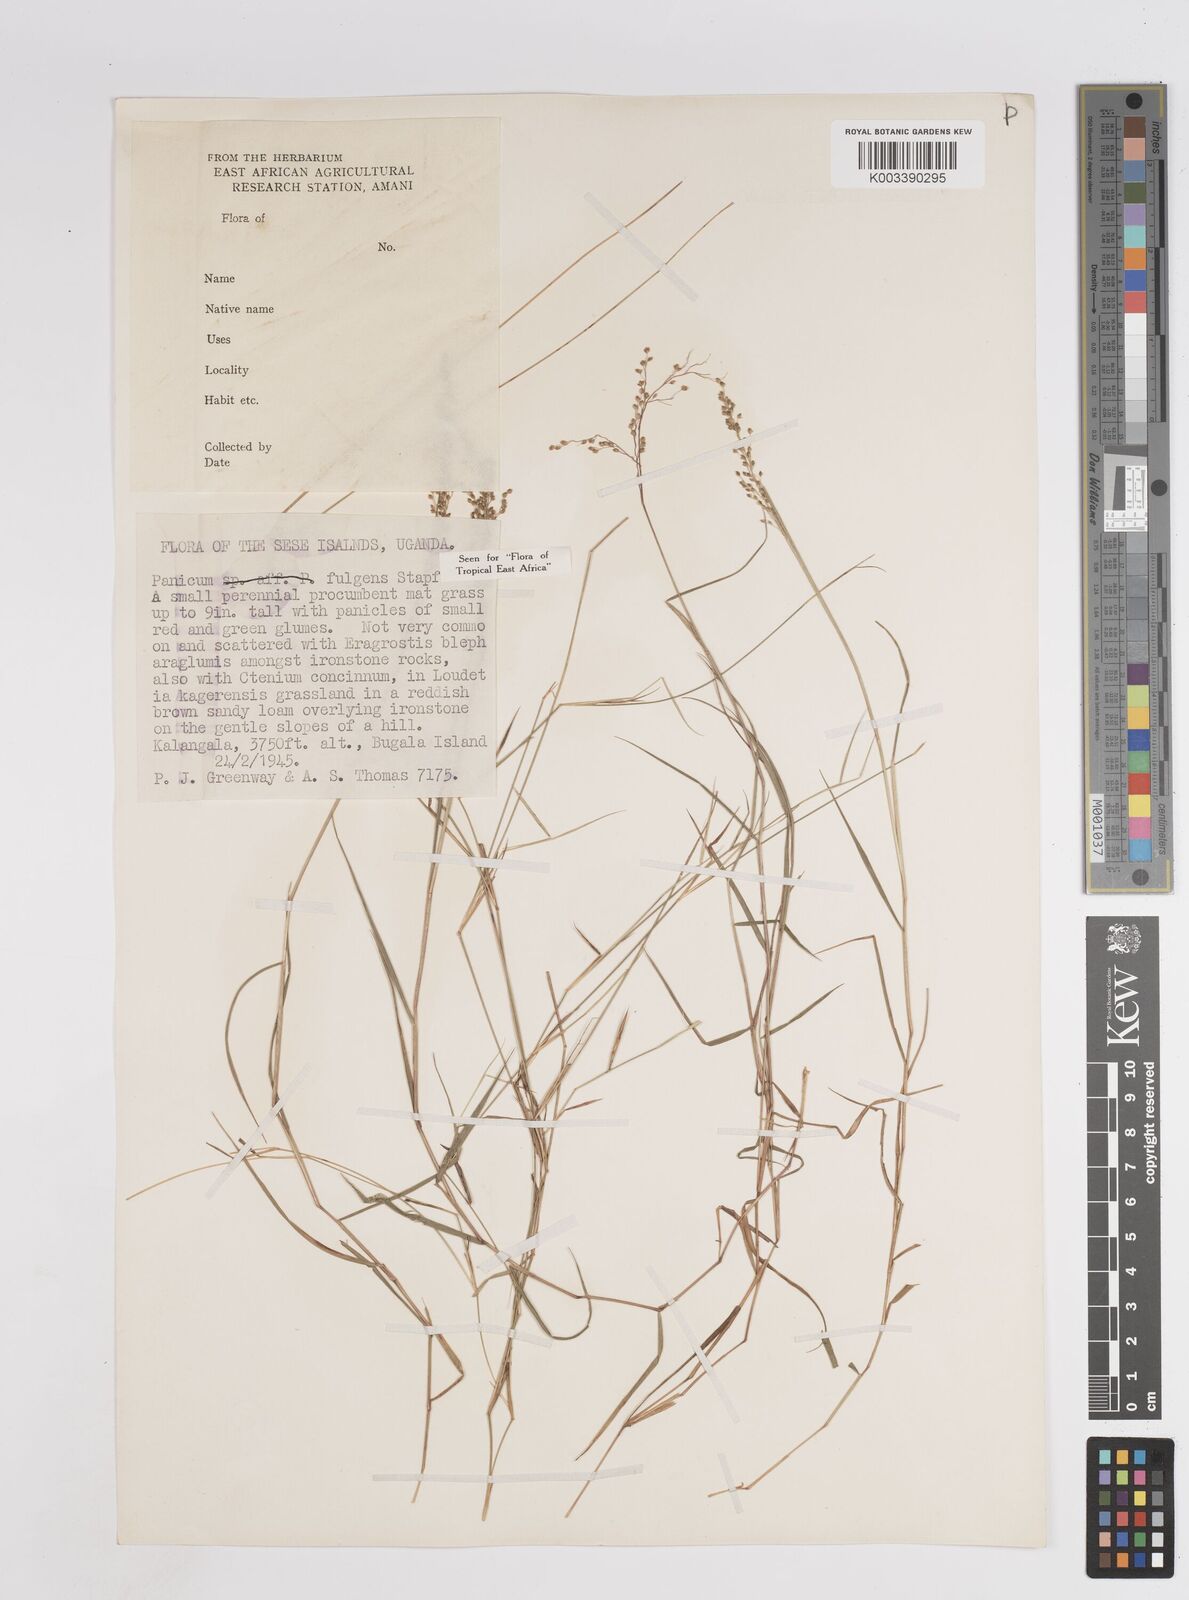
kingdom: Plantae
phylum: Tracheophyta
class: Liliopsida
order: Poales
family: Poaceae
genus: Trichanthecium
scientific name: Trichanthecium nervatum
